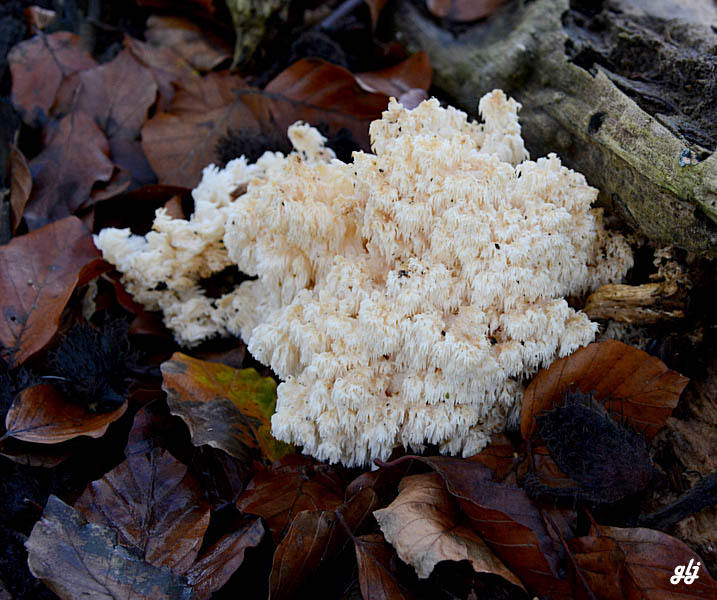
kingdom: Fungi
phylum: Basidiomycota
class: Agaricomycetes
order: Russulales
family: Hericiaceae
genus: Hericium
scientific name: Hericium coralloides
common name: koralpigsvamp
